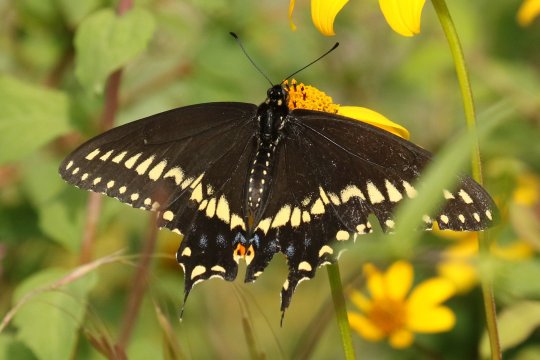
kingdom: Animalia
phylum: Arthropoda
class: Insecta
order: Lepidoptera
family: Papilionidae
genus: Papilio
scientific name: Papilio polyxenes
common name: Black Swallowtail
